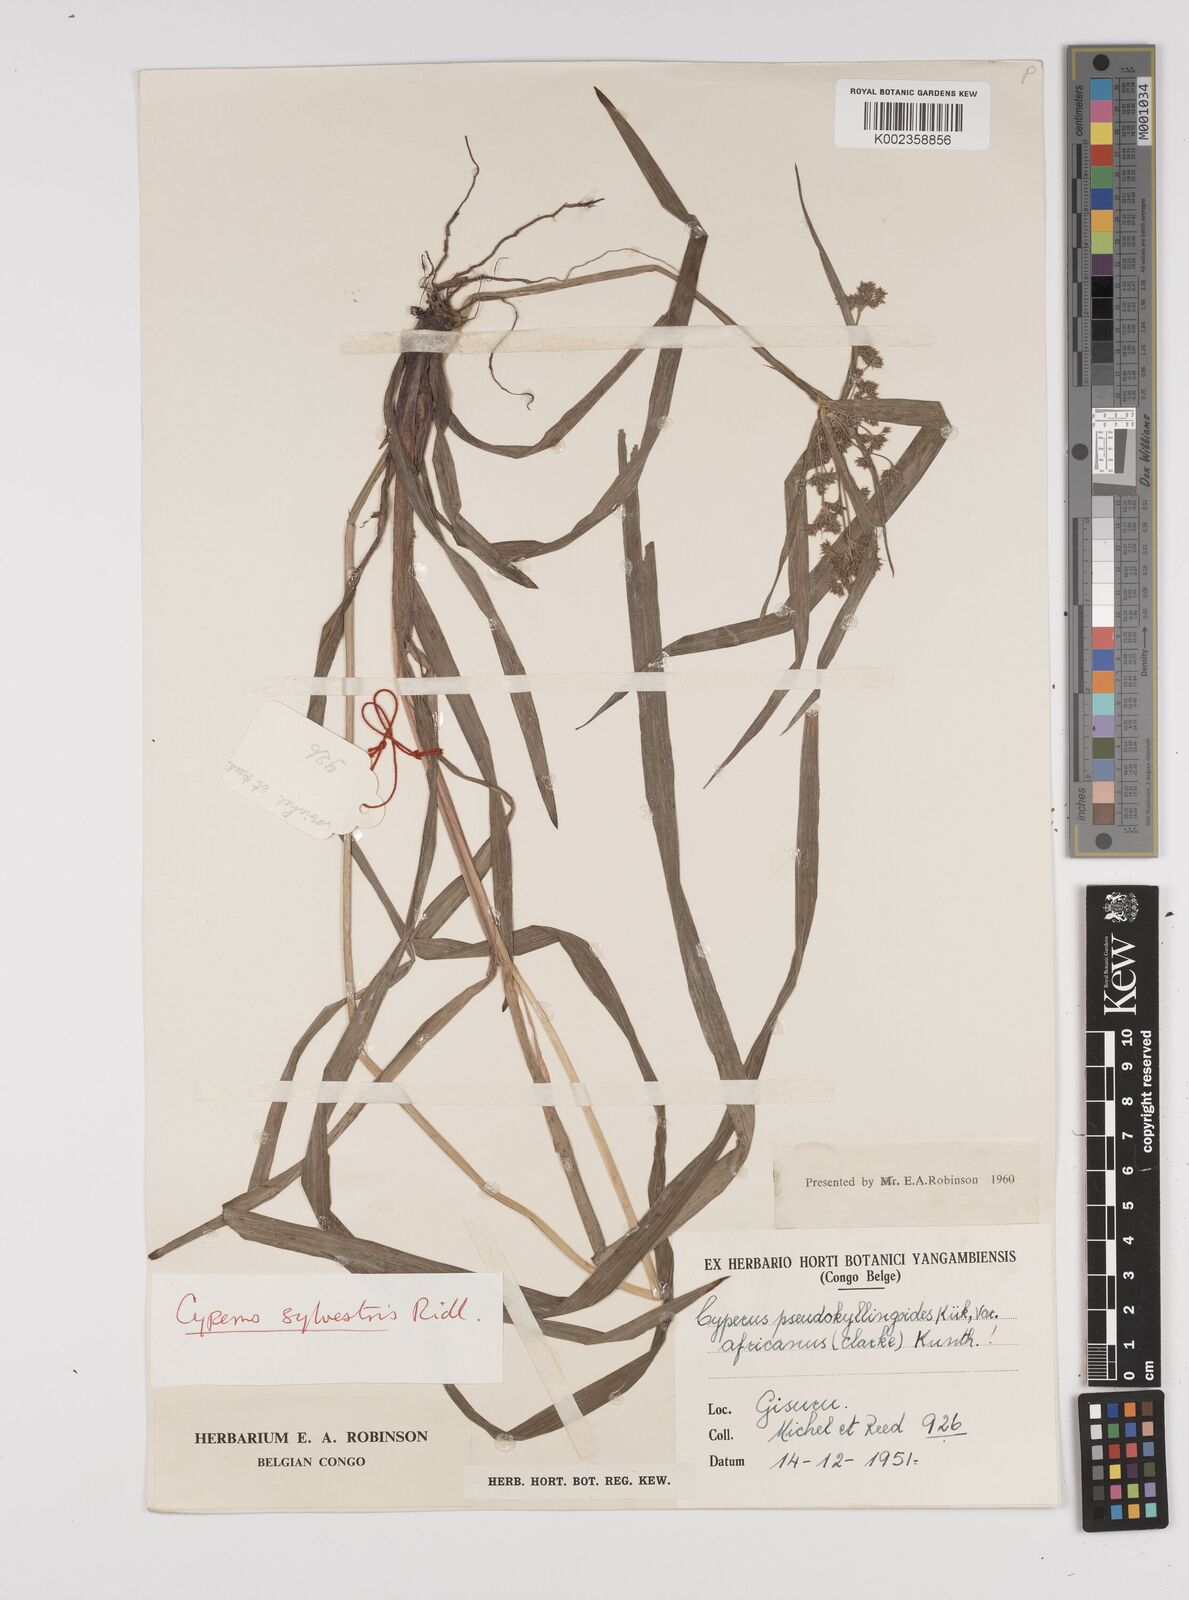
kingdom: Plantae
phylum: Tracheophyta
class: Liliopsida
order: Poales
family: Cyperaceae
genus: Cyperus
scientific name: Cyperus glaucophyllus
